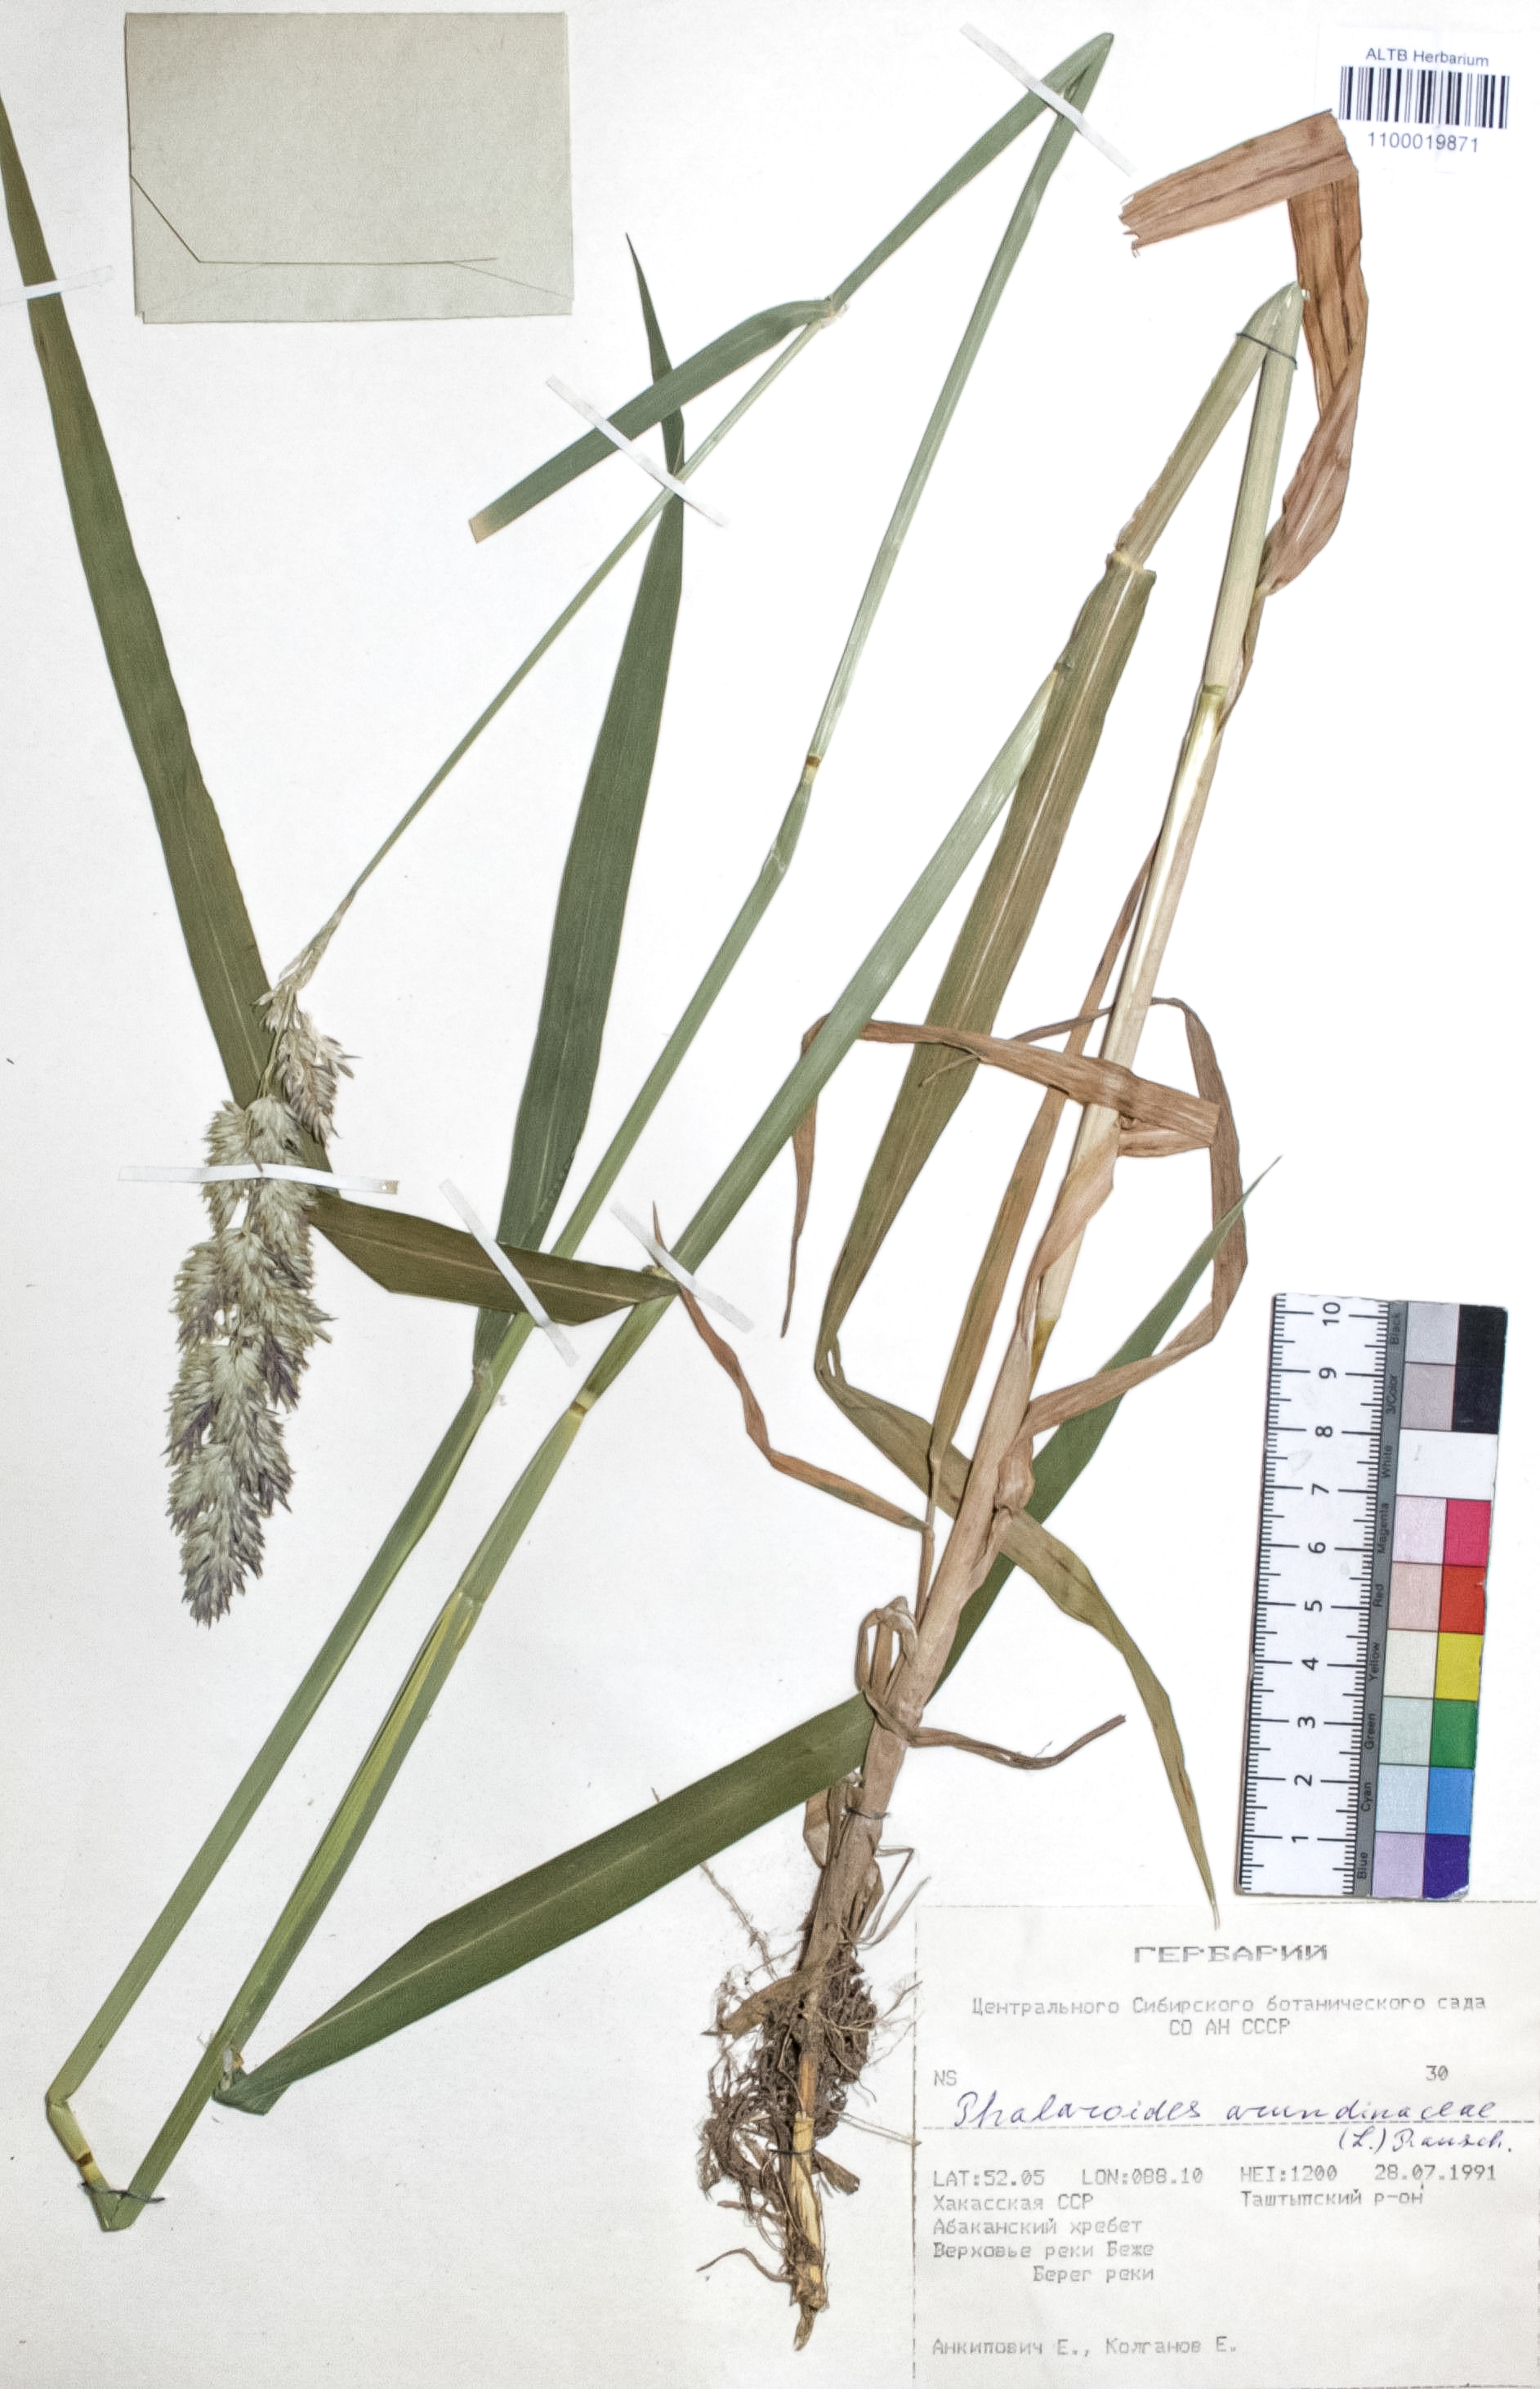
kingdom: Plantae
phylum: Tracheophyta
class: Liliopsida
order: Poales
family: Poaceae
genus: Phalaris
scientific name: Phalaris arundinacea
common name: Reed canary-grass
